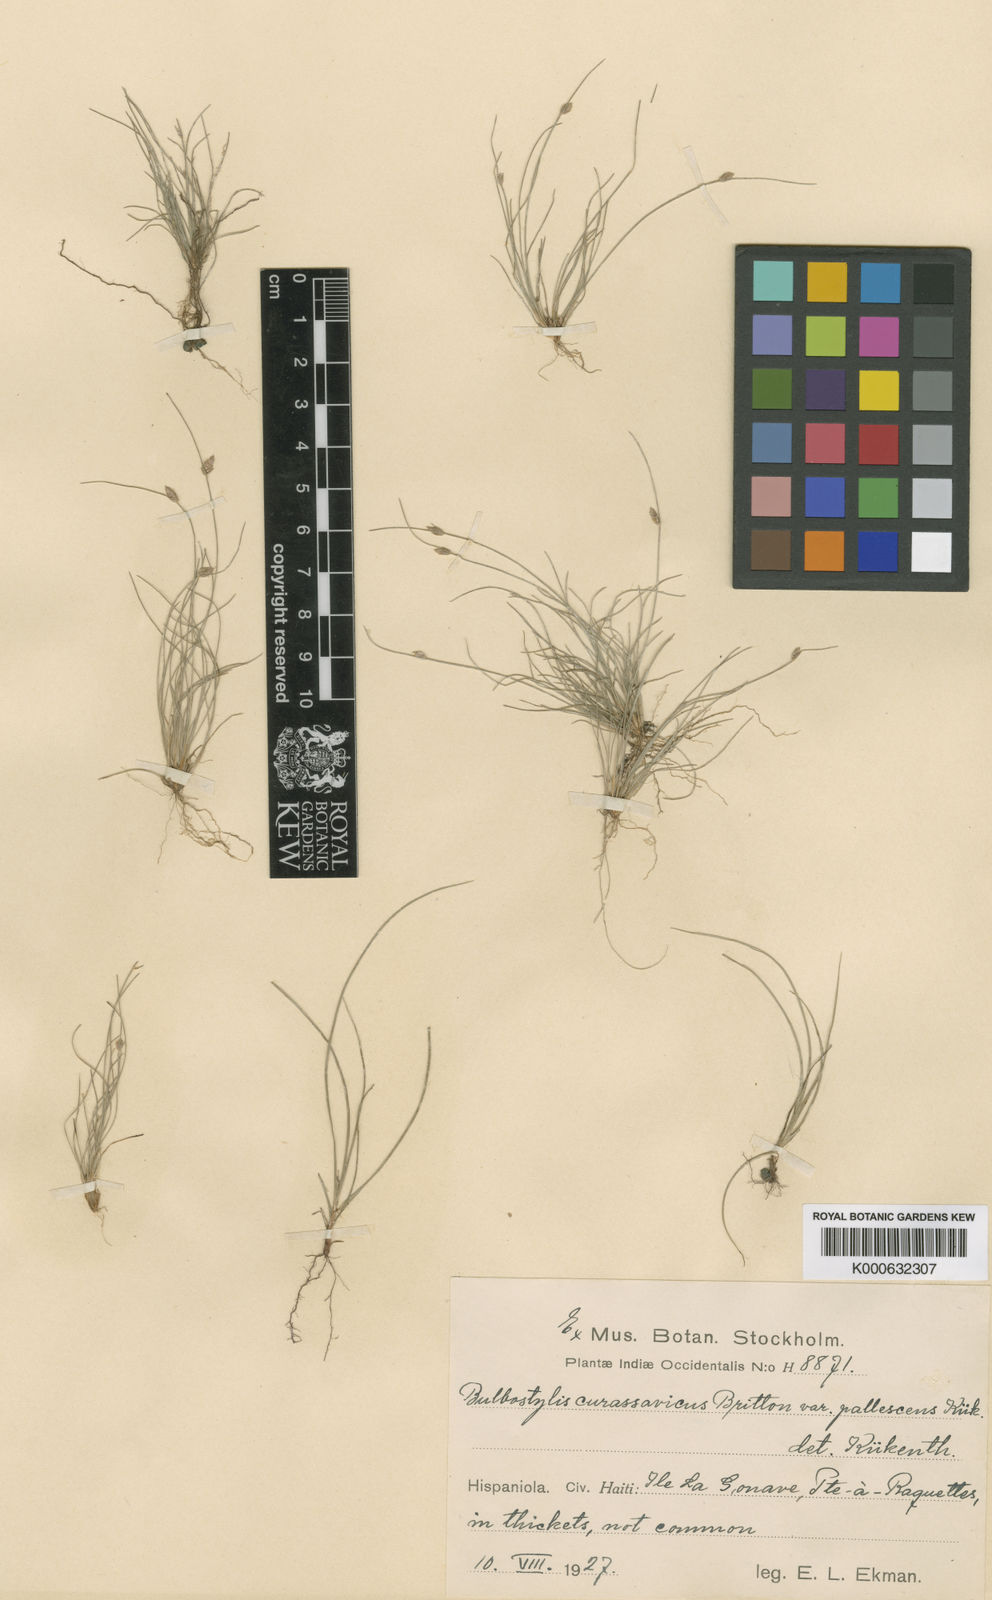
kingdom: Plantae
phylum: Tracheophyta
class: Liliopsida
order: Poales
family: Cyperaceae
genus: Bulbostylis
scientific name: Bulbostylis
